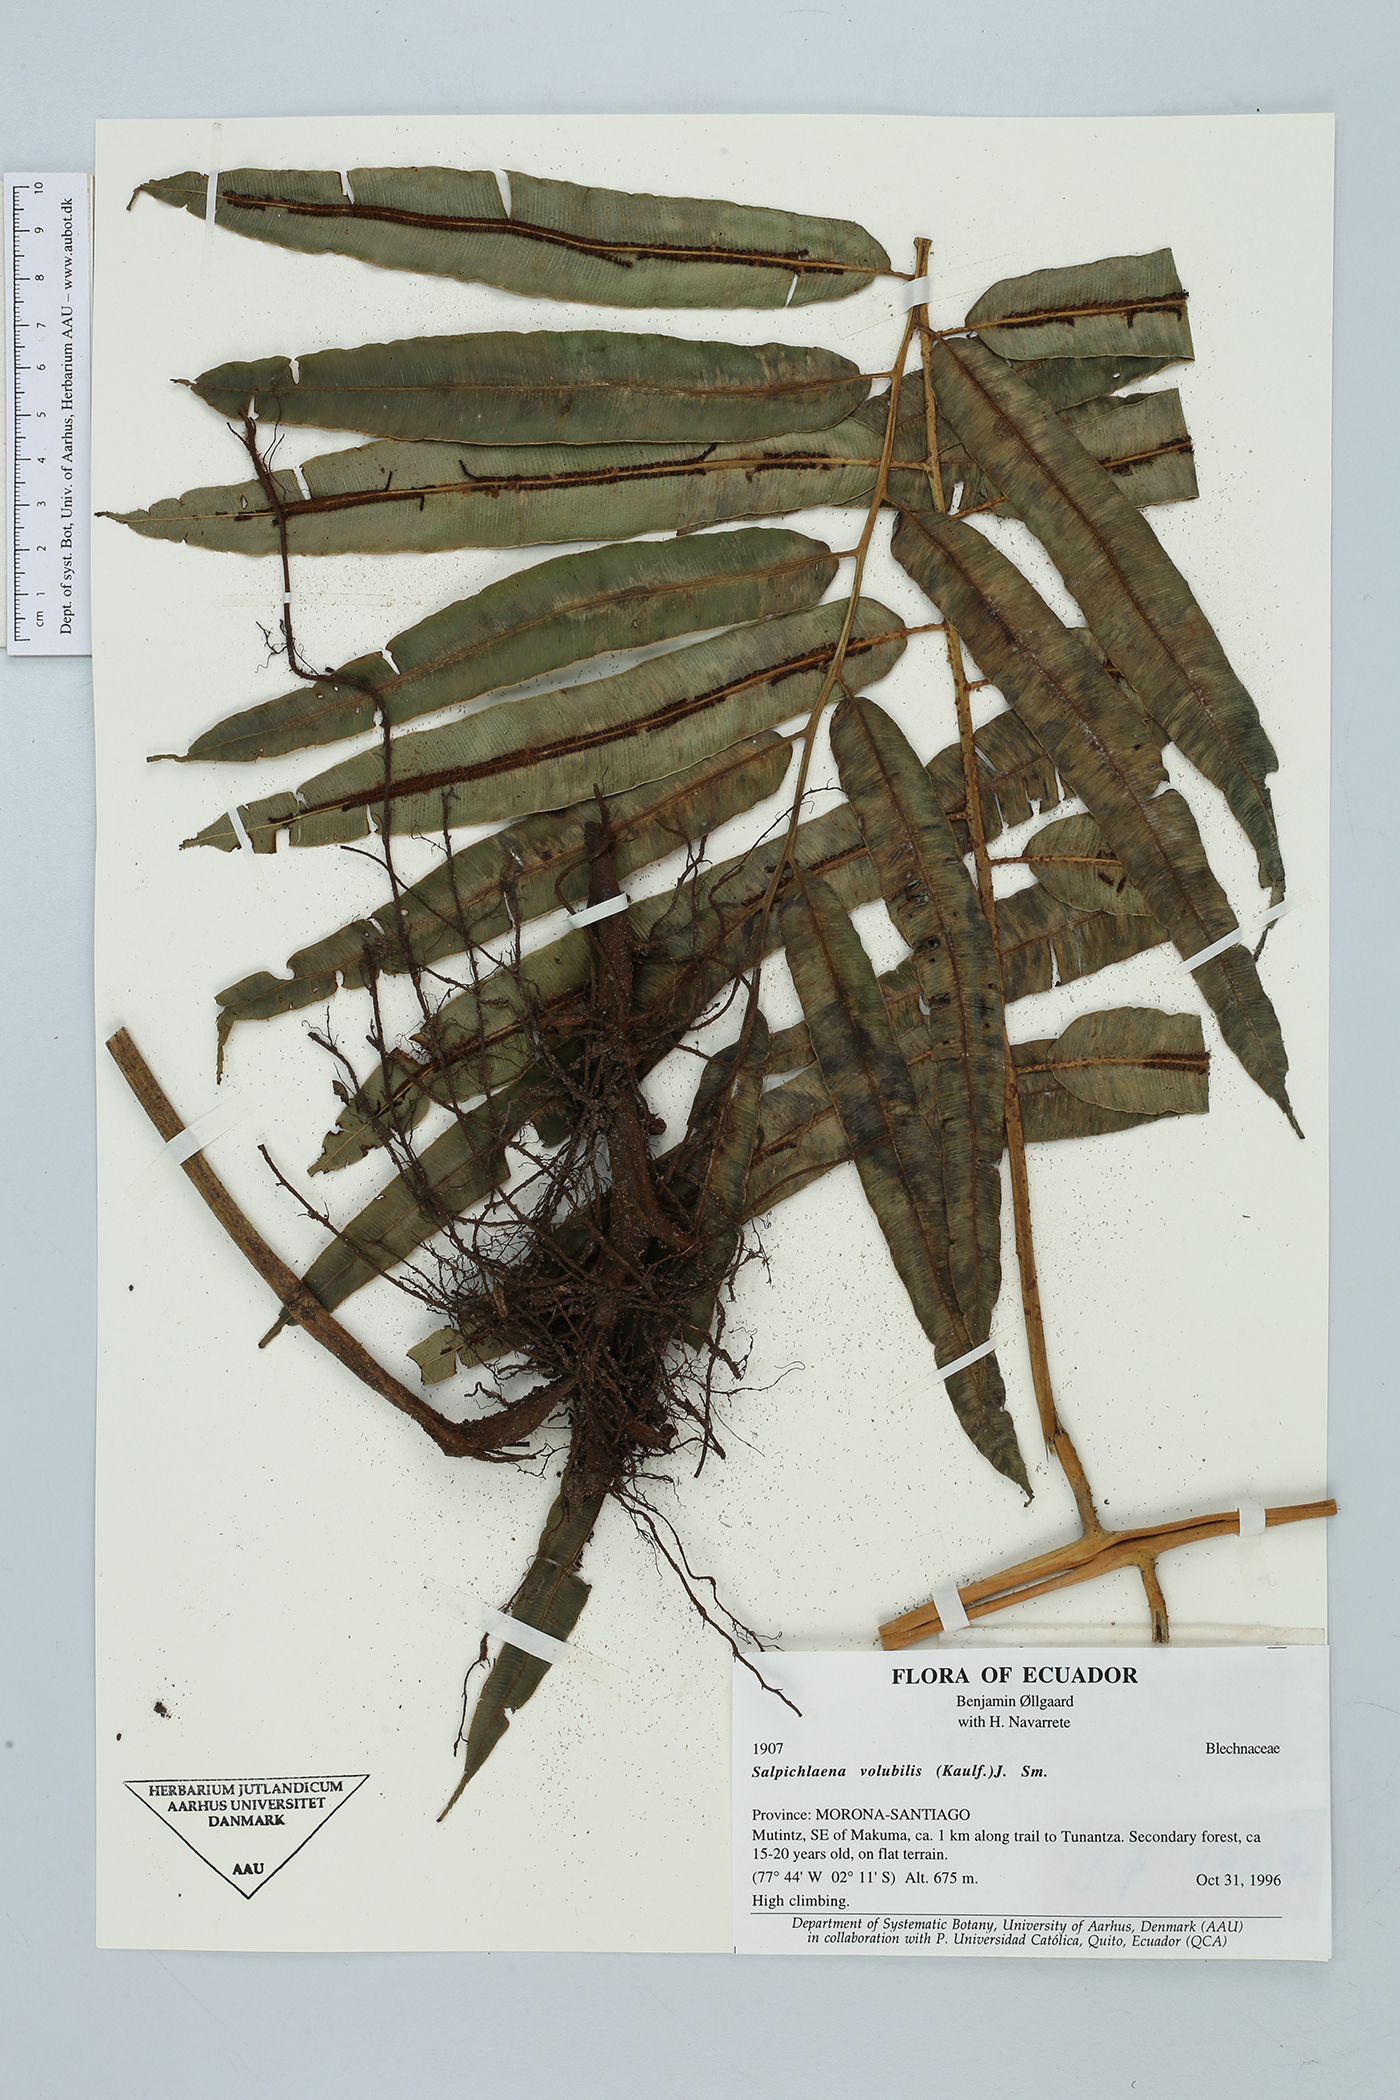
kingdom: Plantae
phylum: Tracheophyta
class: Polypodiopsida
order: Polypodiales
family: Blechnaceae
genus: Salpichlaena
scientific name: Salpichlaena papyrus
